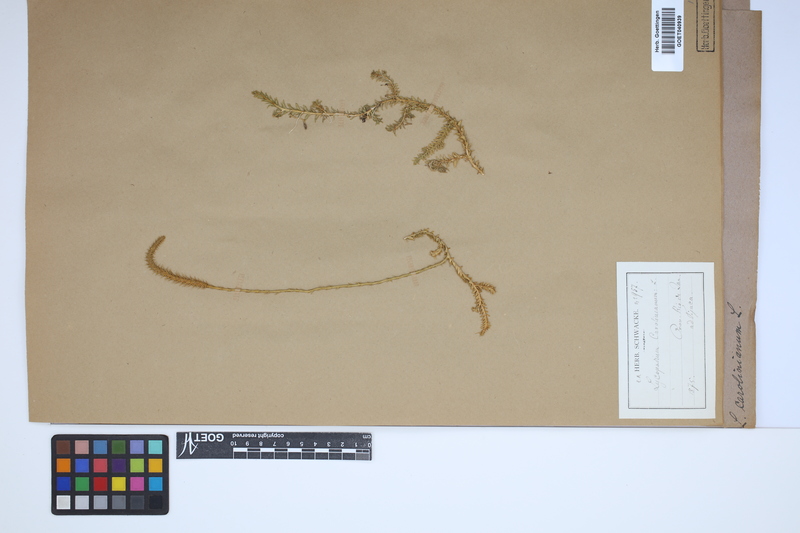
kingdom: Plantae
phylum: Tracheophyta
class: Lycopodiopsida
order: Lycopodiales
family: Lycopodiaceae
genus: Brownseya
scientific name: Brownseya serpentina
